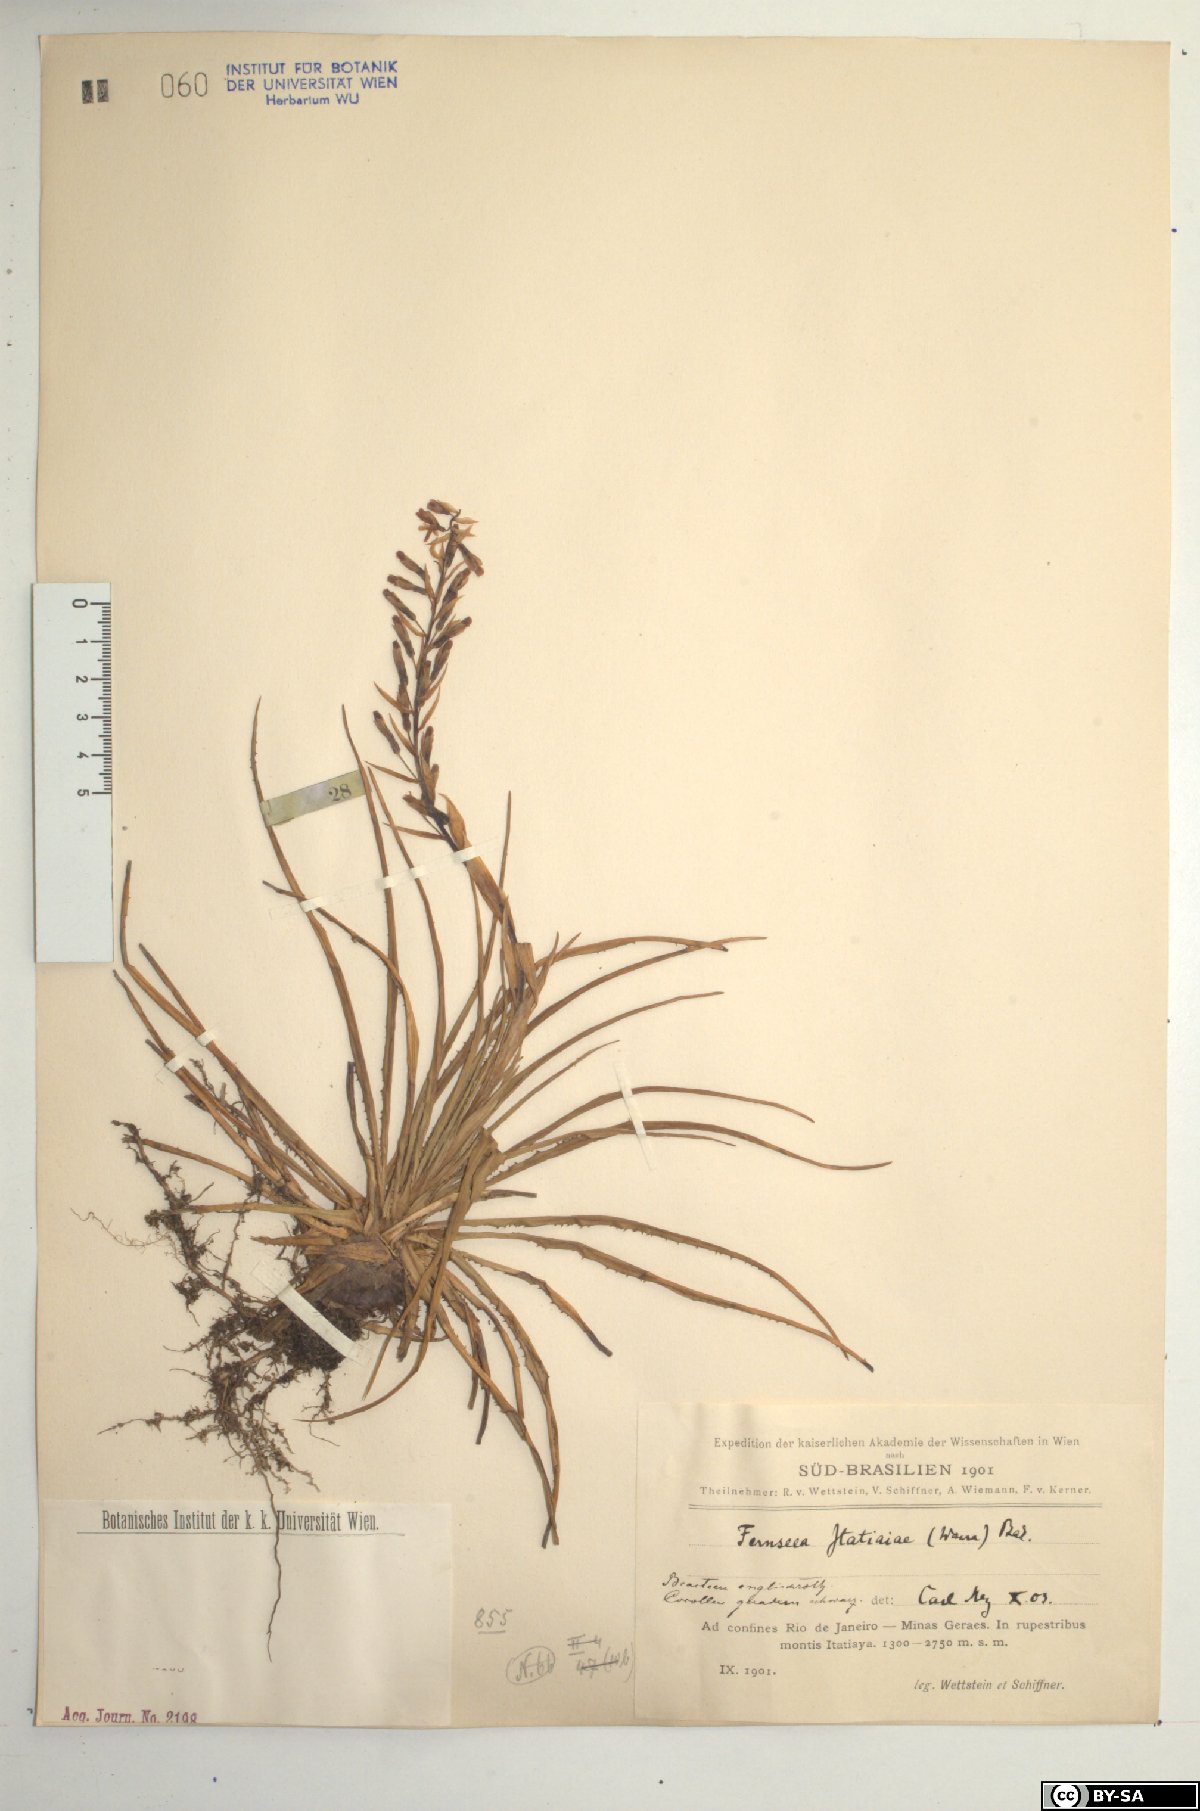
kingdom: Plantae
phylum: Tracheophyta
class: Liliopsida
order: Poales
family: Bromeliaceae
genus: Fernseea
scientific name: Fernseea itatiaiae
